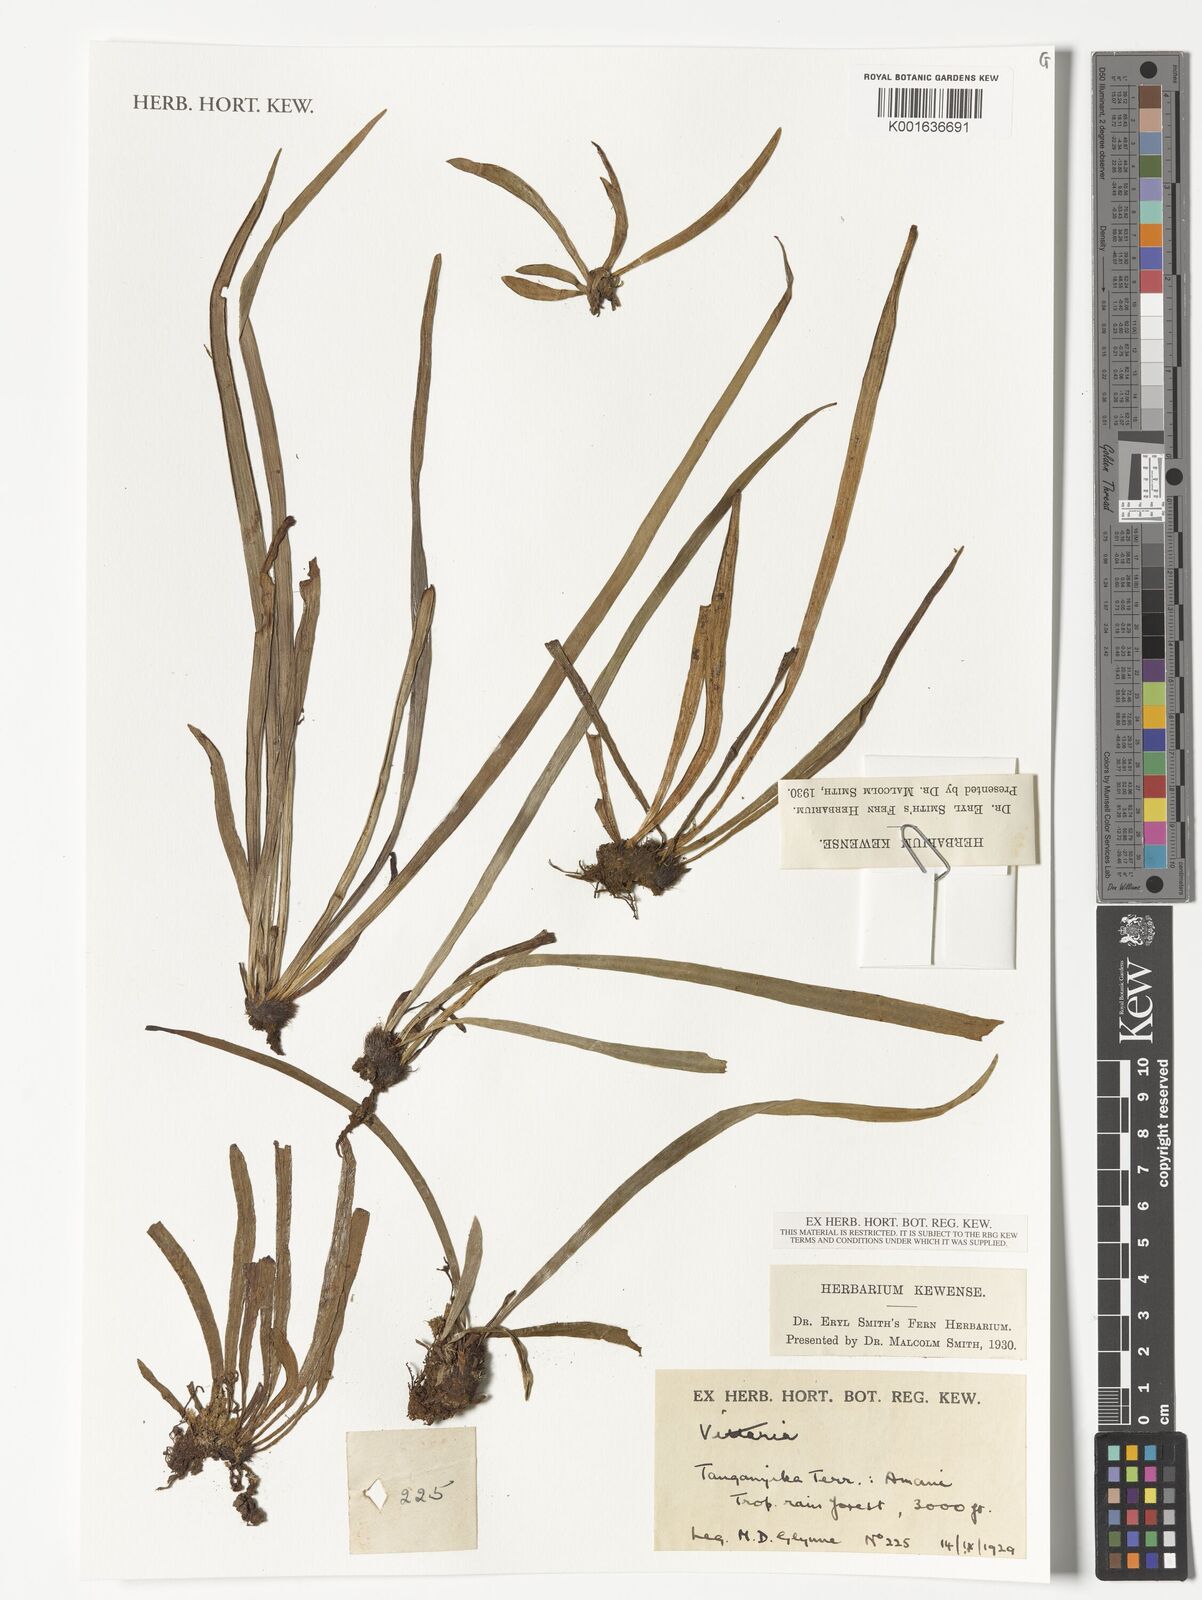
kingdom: Plantae
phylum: Tracheophyta
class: Polypodiopsida
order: Polypodiales
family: Pteridaceae
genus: Vittaria
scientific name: Vittaria
